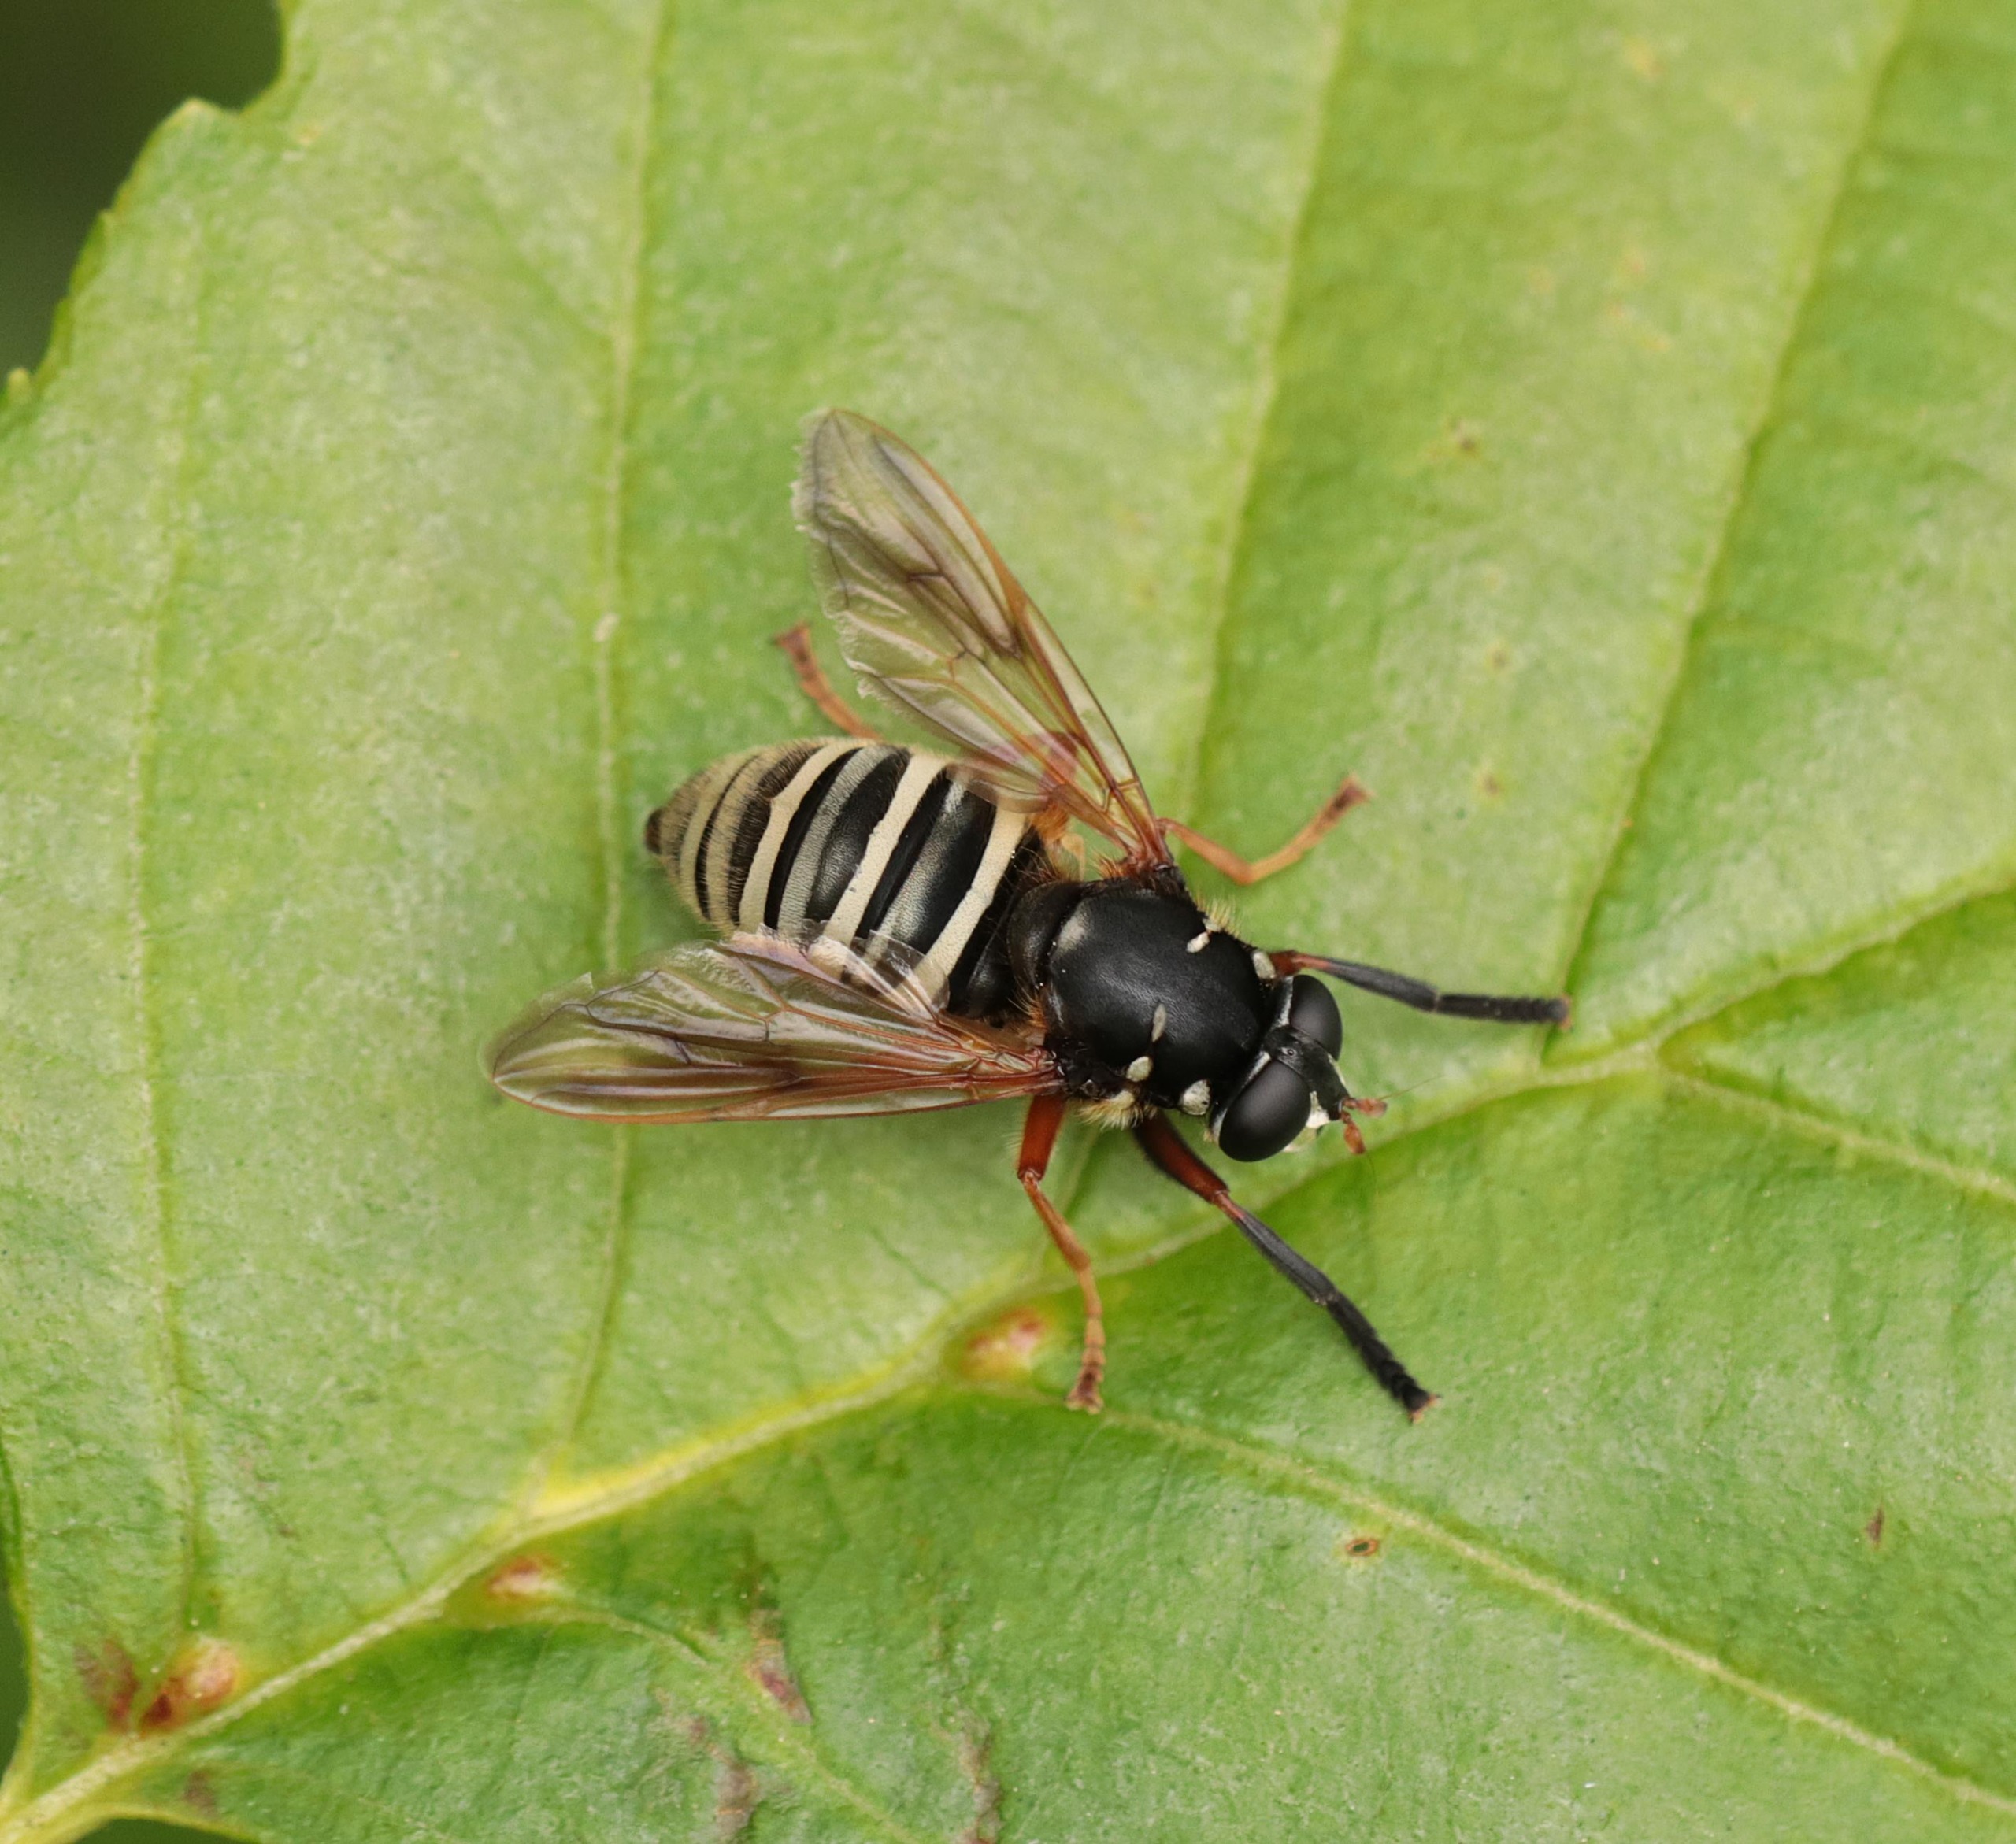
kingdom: Animalia
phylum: Arthropoda
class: Insecta
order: Diptera
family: Syrphidae
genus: Temnostoma
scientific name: Temnostoma apiforme
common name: Bredbåndet vedsvirreflue
